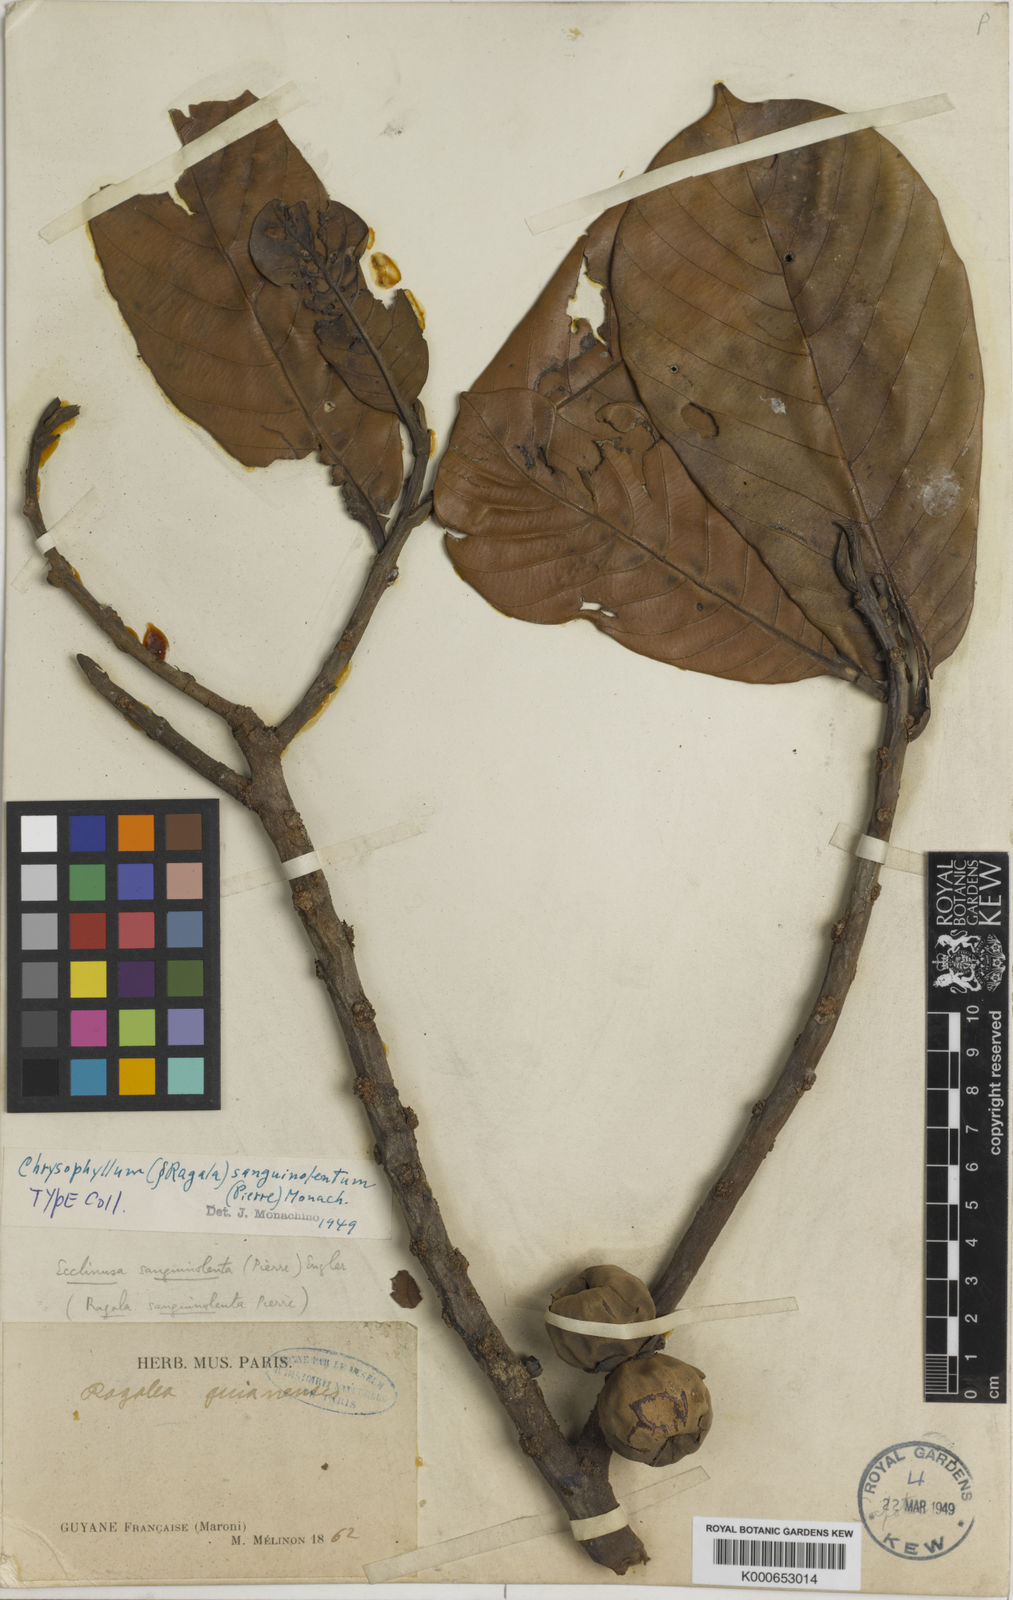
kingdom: Plantae
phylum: Tracheophyta
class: Magnoliopsida
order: Ericales
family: Sapotaceae
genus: Chrysophyllum
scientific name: Chrysophyllum sanguinolentum
